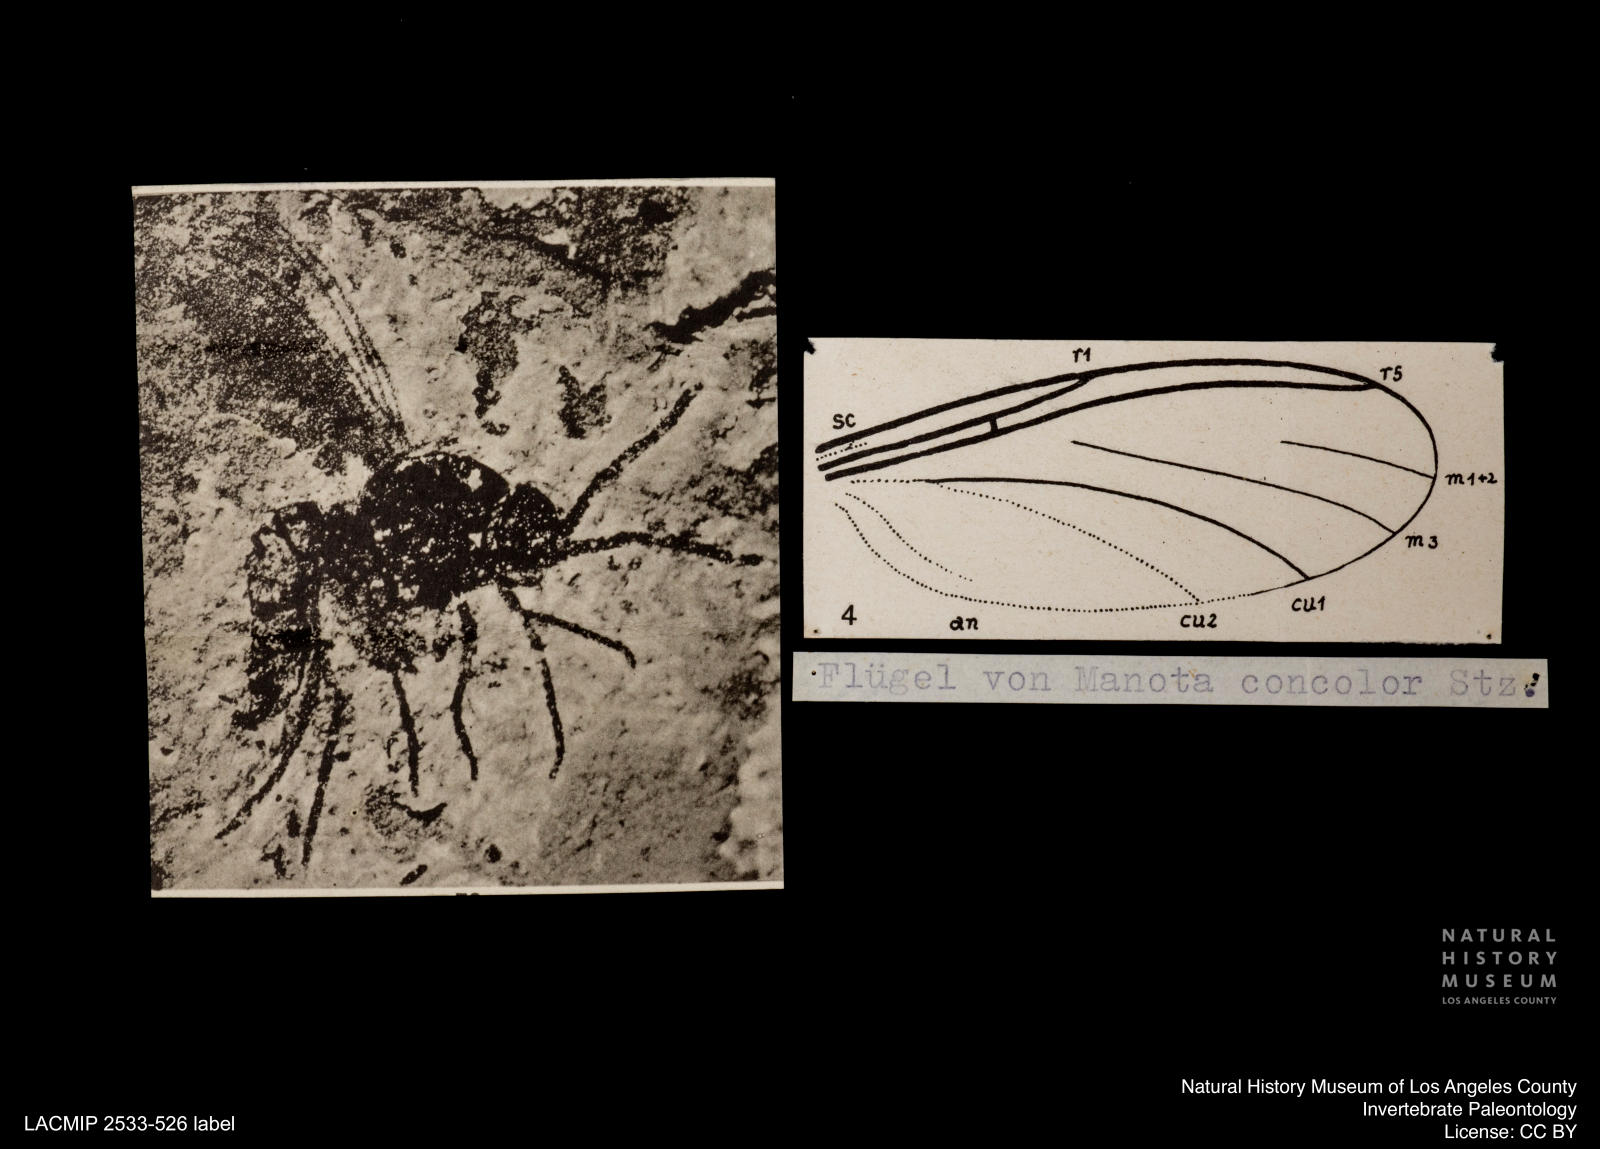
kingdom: Animalia
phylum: Arthropoda
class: Insecta
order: Diptera
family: Mycetophilidae
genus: Manota
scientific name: Manota concolor
